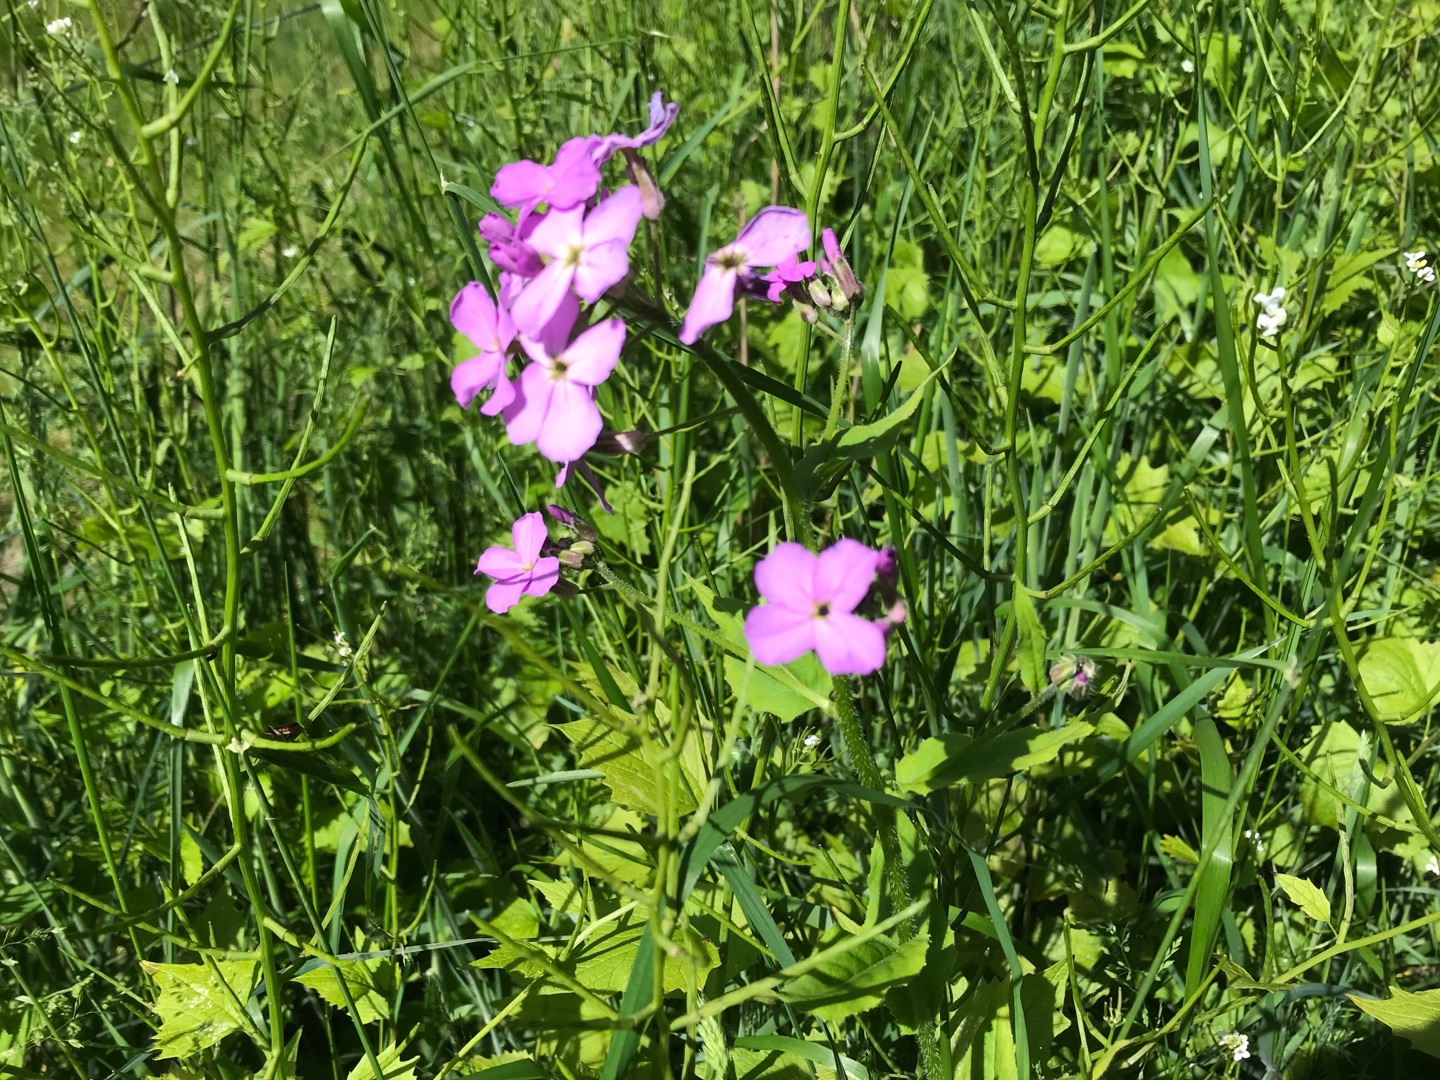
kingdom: Plantae
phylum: Tracheophyta
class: Magnoliopsida
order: Brassicales
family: Brassicaceae
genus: Hesperis
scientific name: Hesperis matronalis
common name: Aftenstjerne
